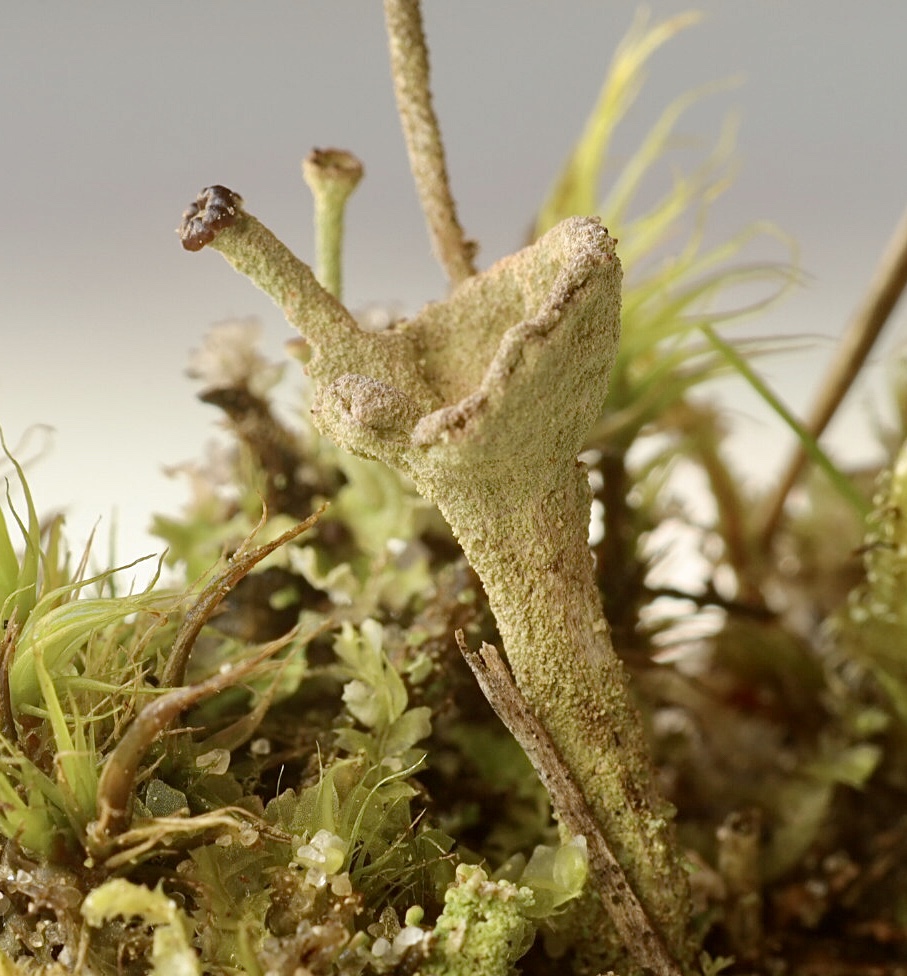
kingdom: Fungi
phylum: Ascomycota
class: Lecanoromycetes
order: Lecanorales
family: Cladoniaceae
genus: Cladonia
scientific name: Cladonia
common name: brungrøn bægerlav
